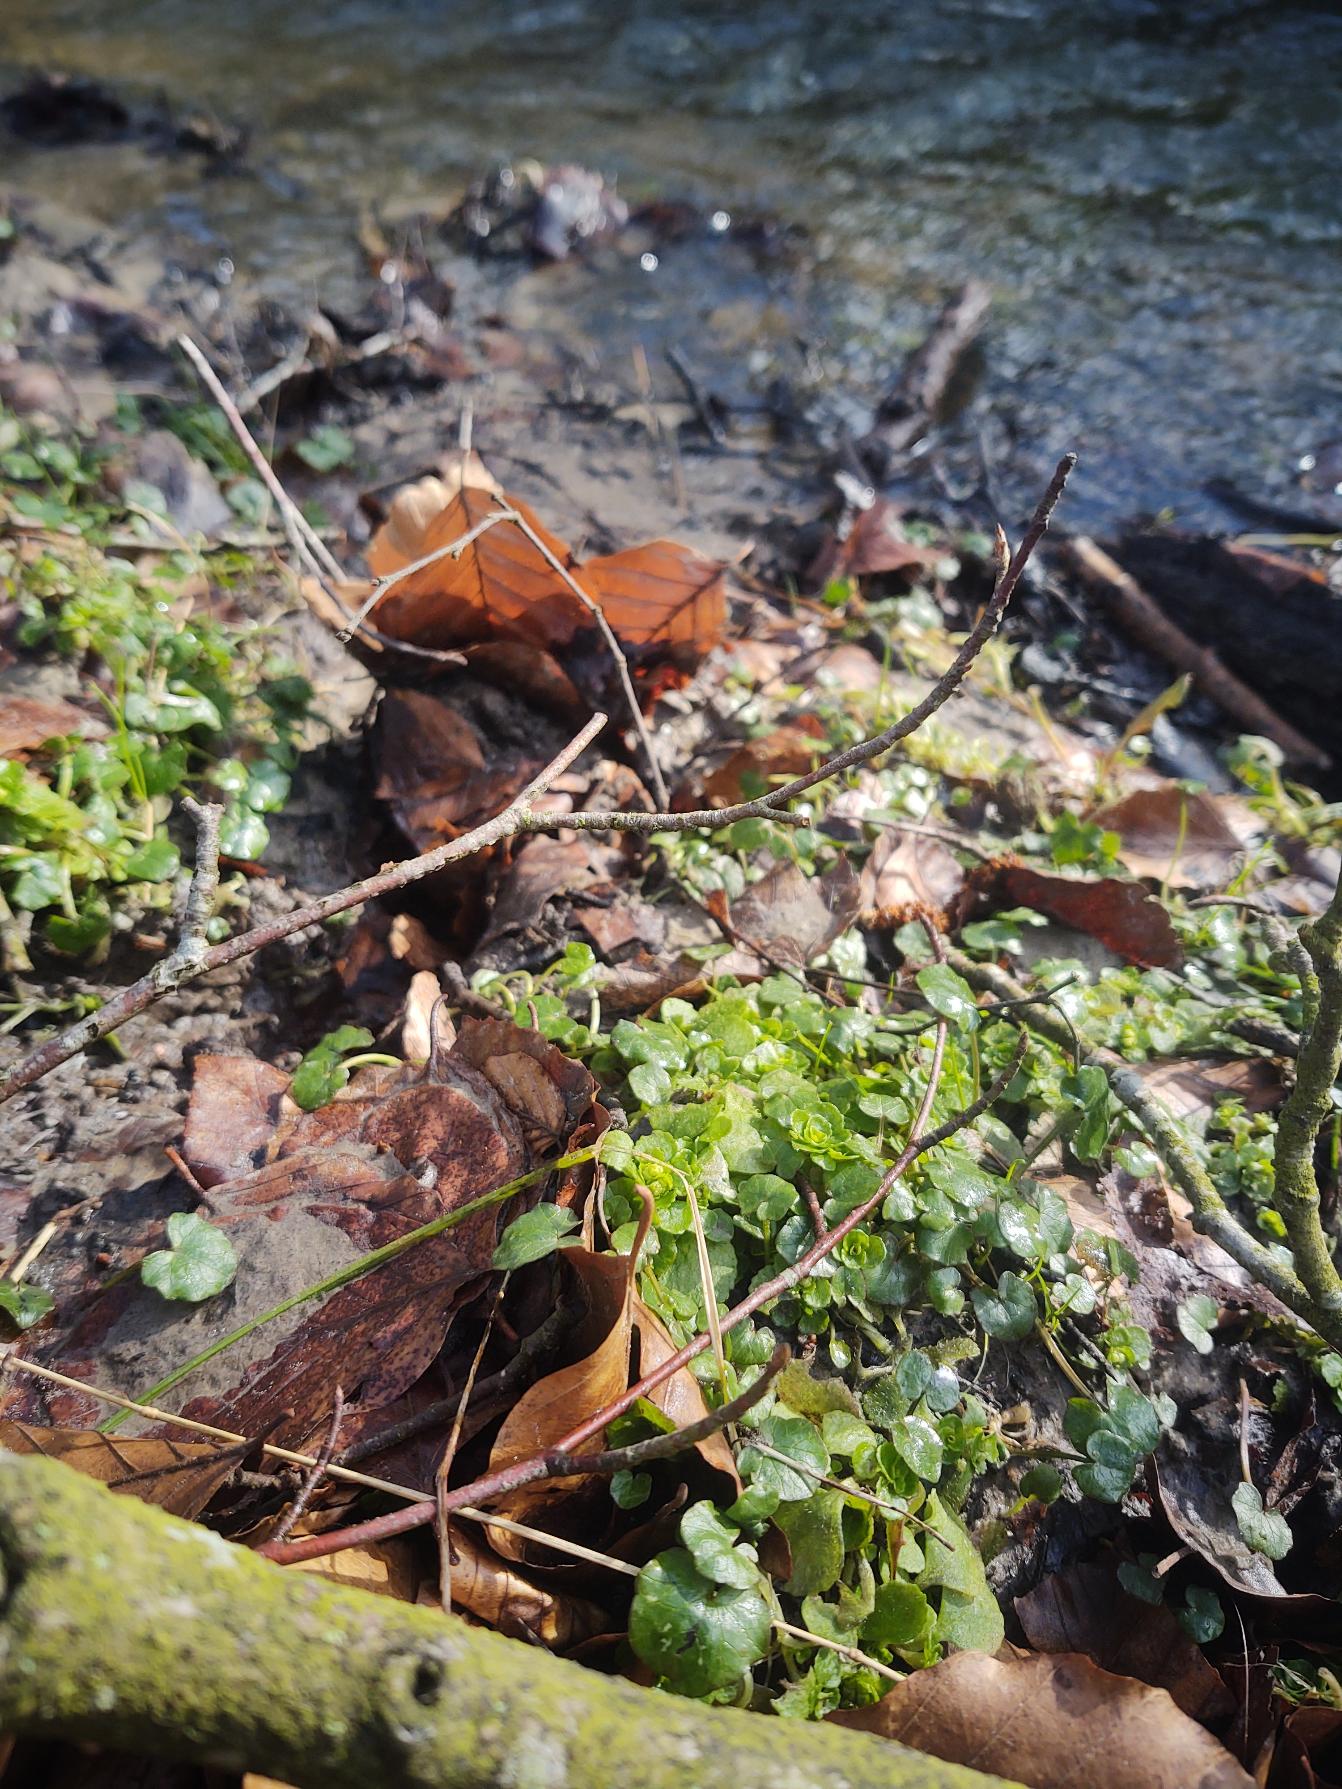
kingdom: Plantae
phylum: Tracheophyta
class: Magnoliopsida
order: Saxifragales
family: Saxifragaceae
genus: Chrysosplenium
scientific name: Chrysosplenium oppositifolium
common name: Småbladet milturt
